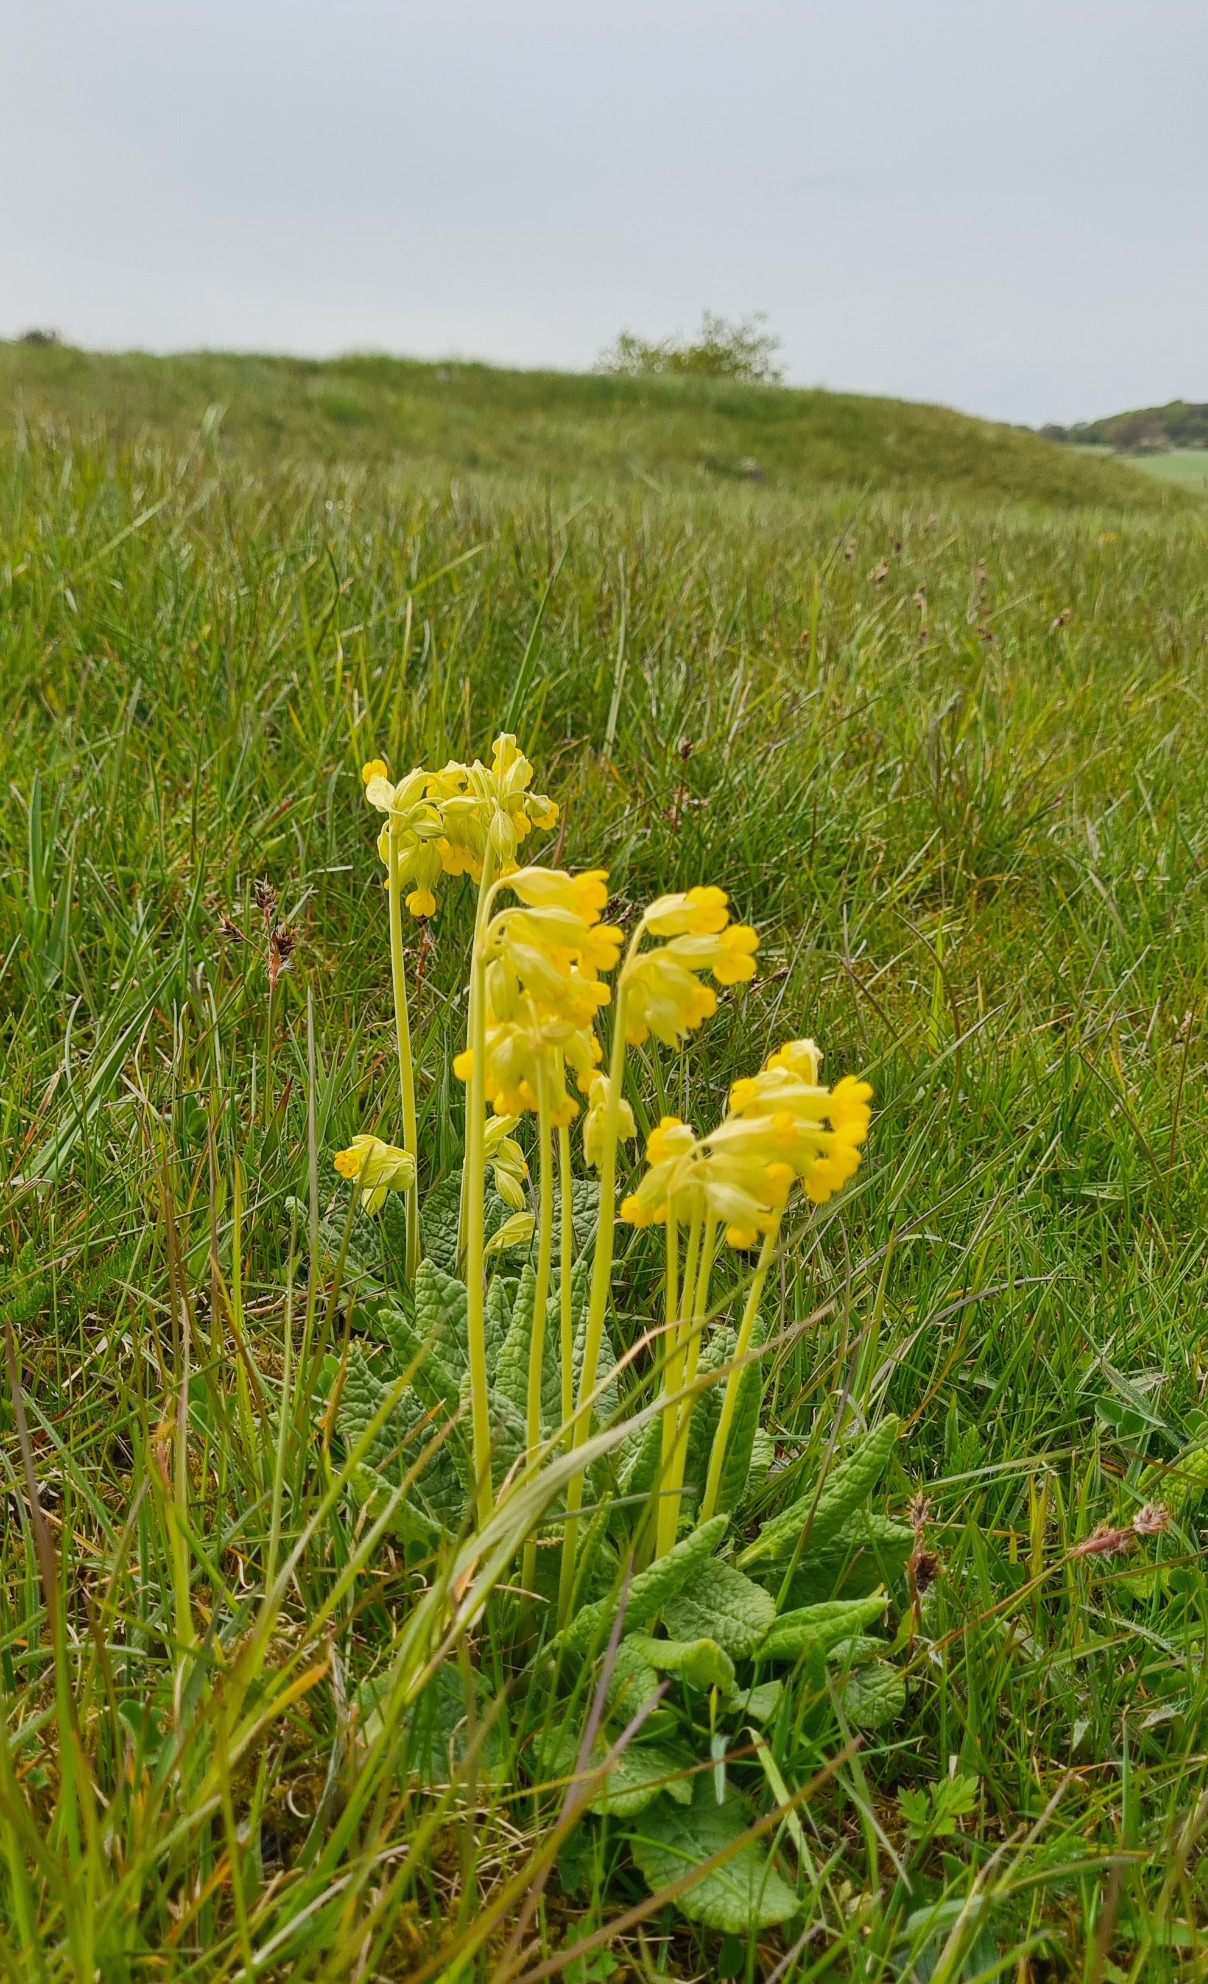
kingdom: Plantae
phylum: Tracheophyta
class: Magnoliopsida
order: Ericales
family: Primulaceae
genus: Primula
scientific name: Primula veris
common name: Hulkravet kodriver
